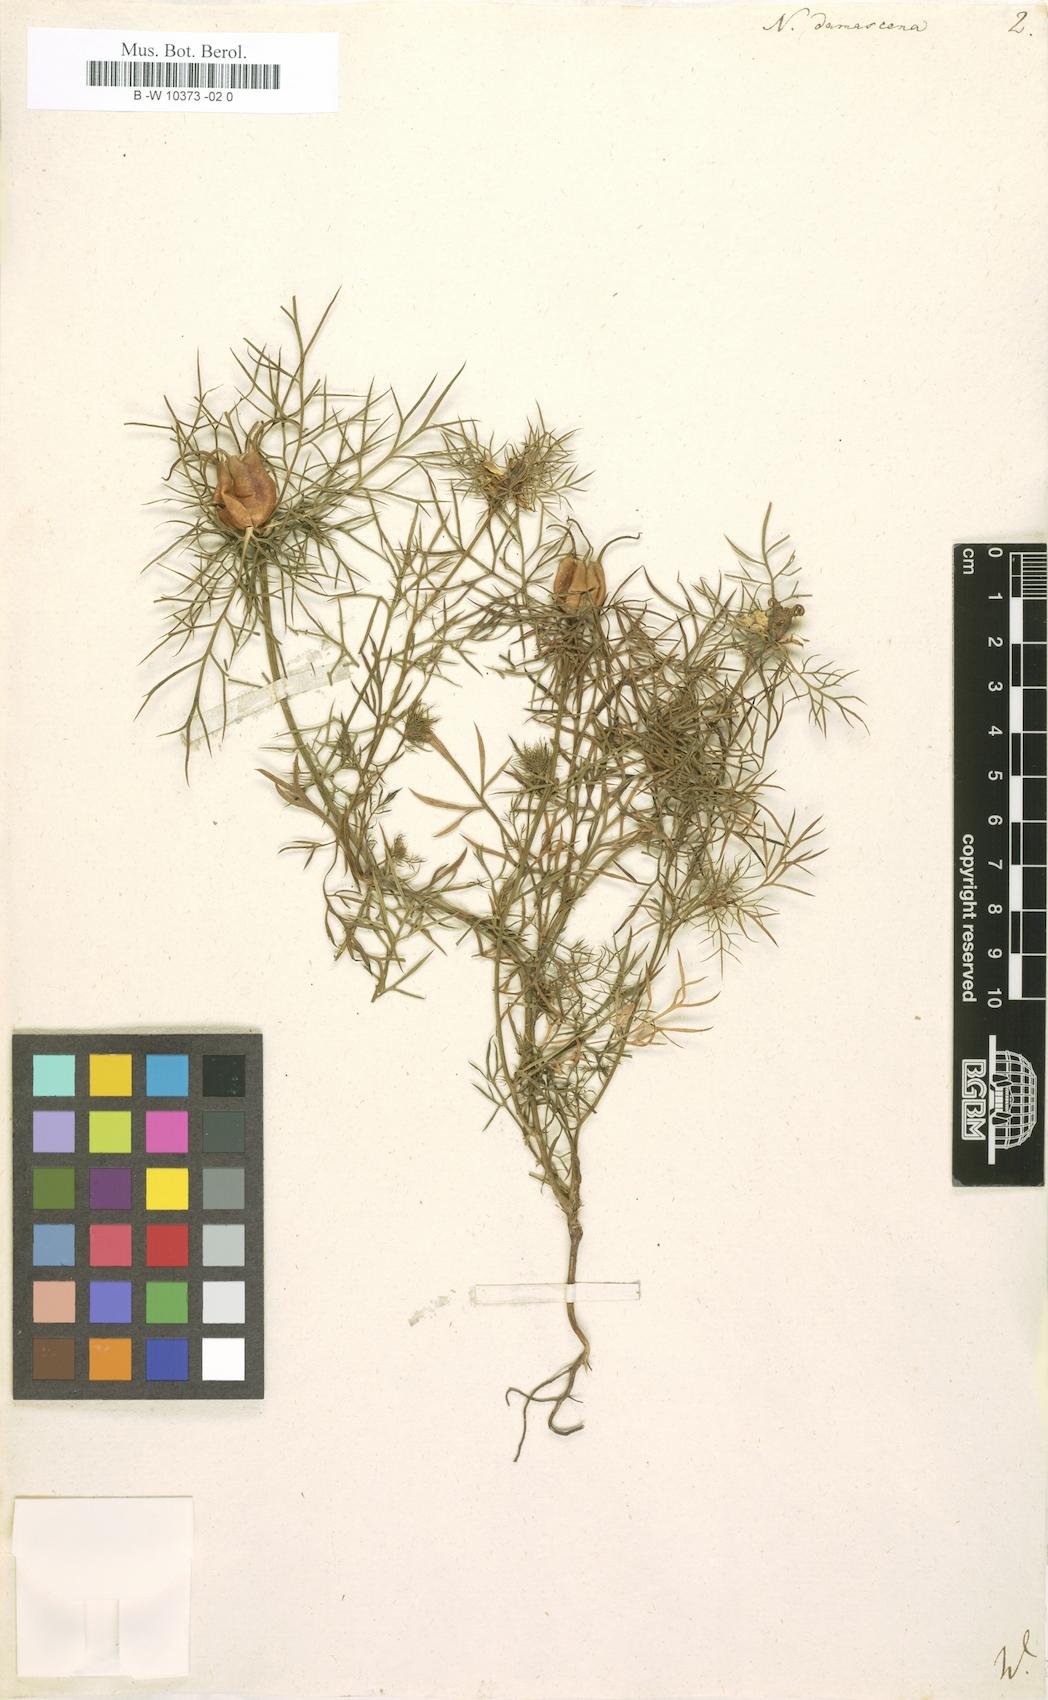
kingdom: Plantae
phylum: Tracheophyta
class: Magnoliopsida
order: Ranunculales
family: Ranunculaceae
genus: Nigella
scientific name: Nigella damascena
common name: Love-in-a-mist
